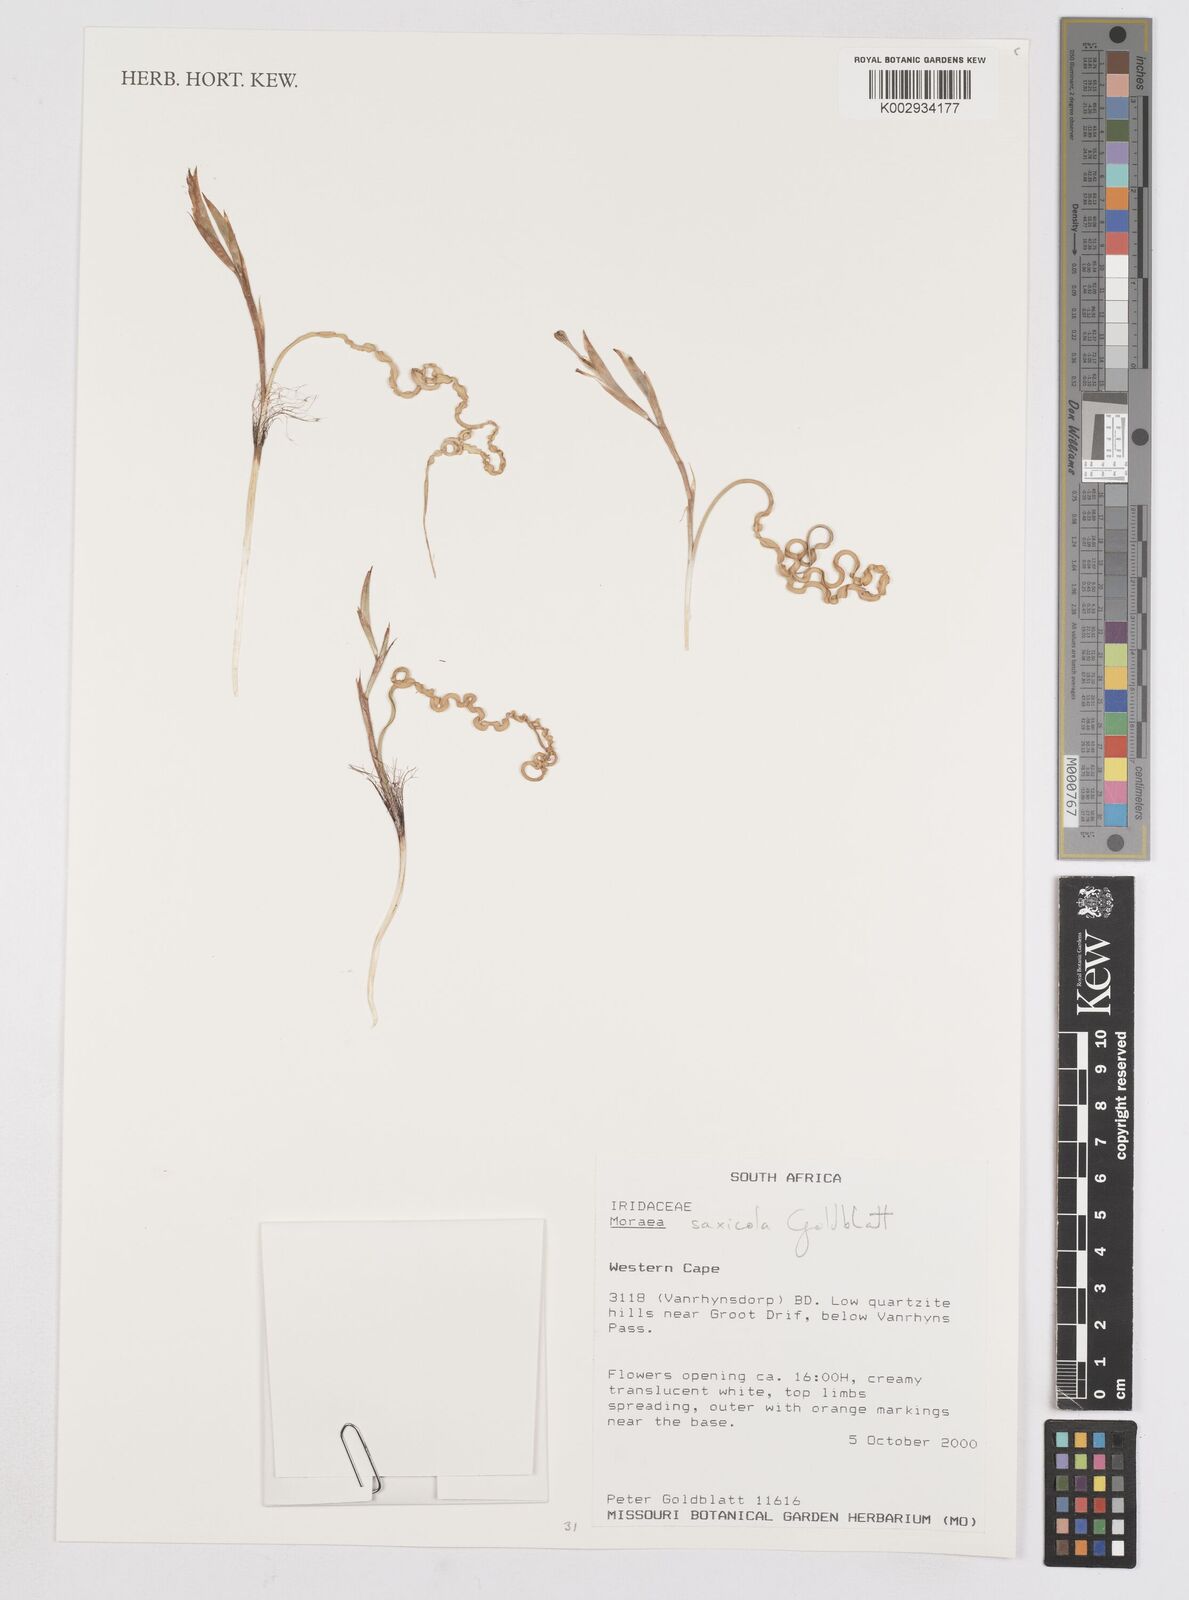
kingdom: Plantae
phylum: Tracheophyta
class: Liliopsida
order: Asparagales
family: Iridaceae
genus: Moraea
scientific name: Moraea saxicola
